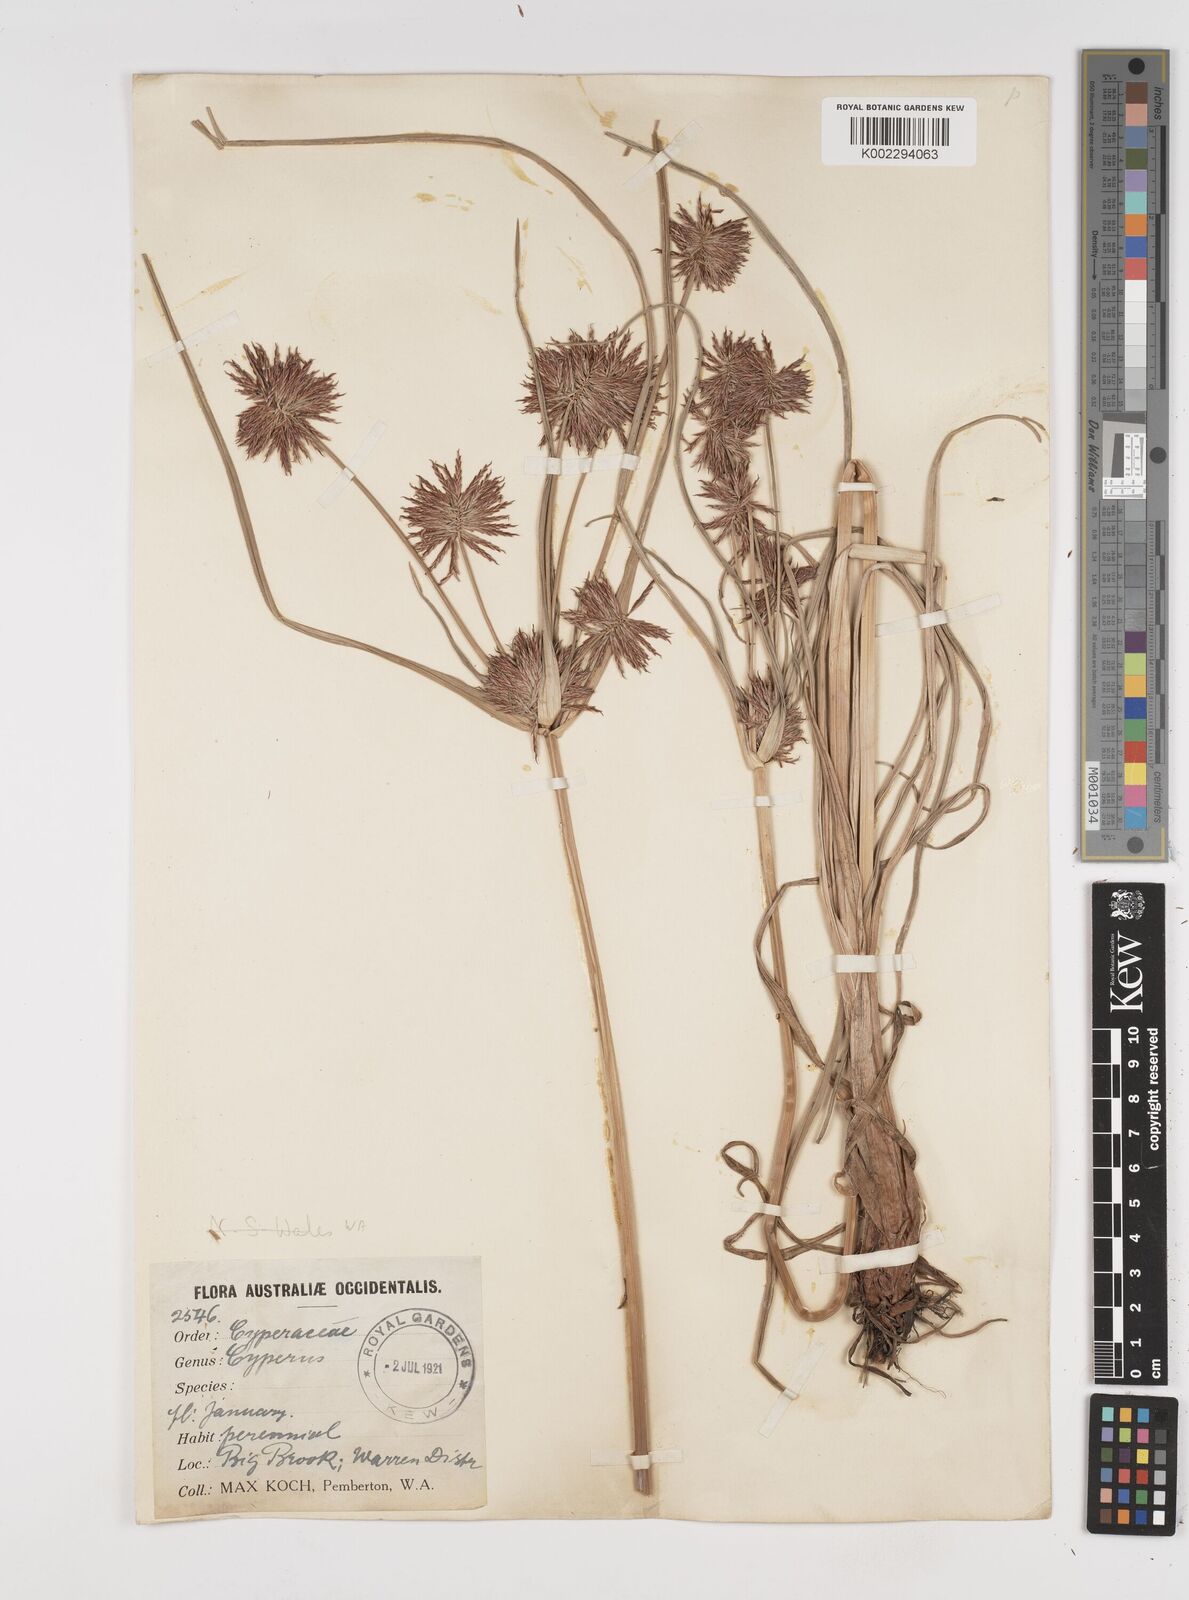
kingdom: Plantae
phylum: Tracheophyta
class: Liliopsida
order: Poales
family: Cyperaceae
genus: Cyperus
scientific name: Cyperus congestus
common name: Dense flat sedge
